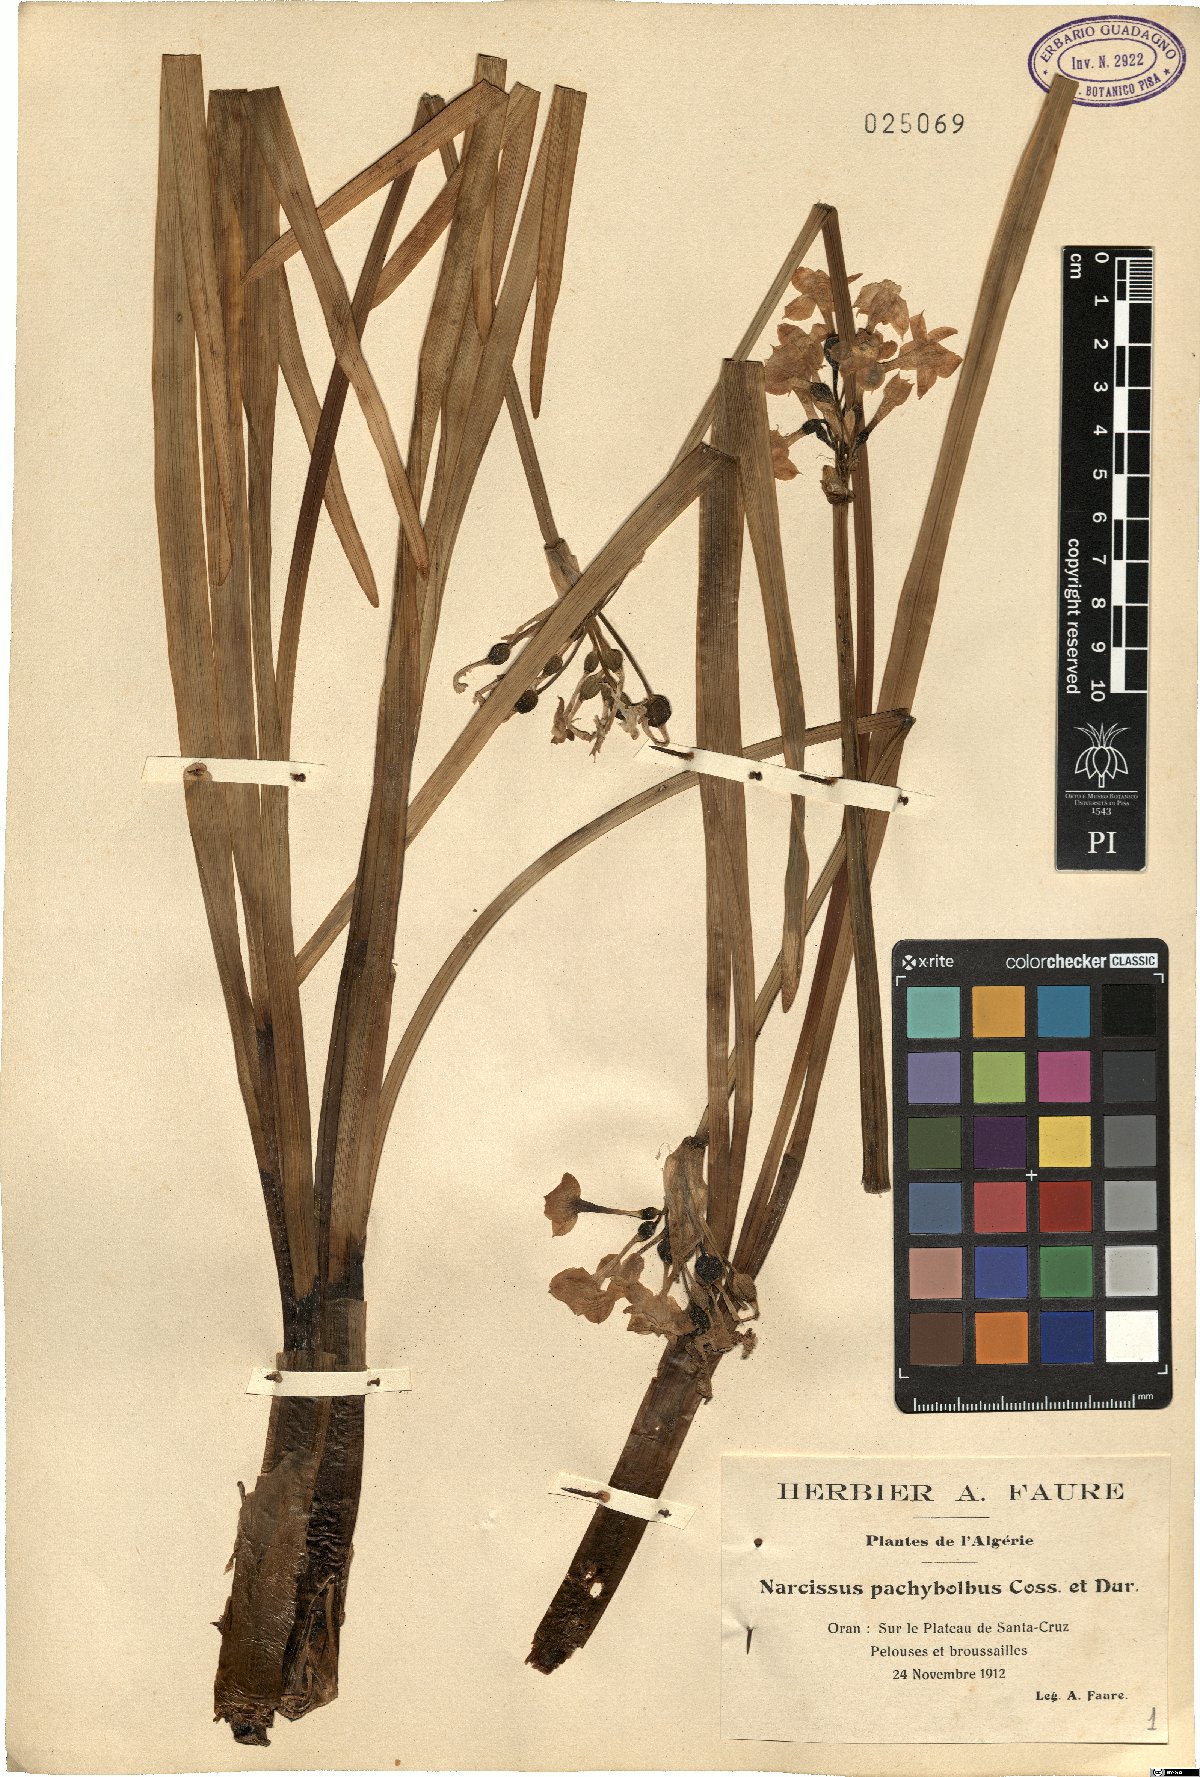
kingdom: Plantae
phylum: Tracheophyta
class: Liliopsida
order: Asparagales
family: Amaryllidaceae
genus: Narcissus
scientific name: Narcissus pachybolbus
